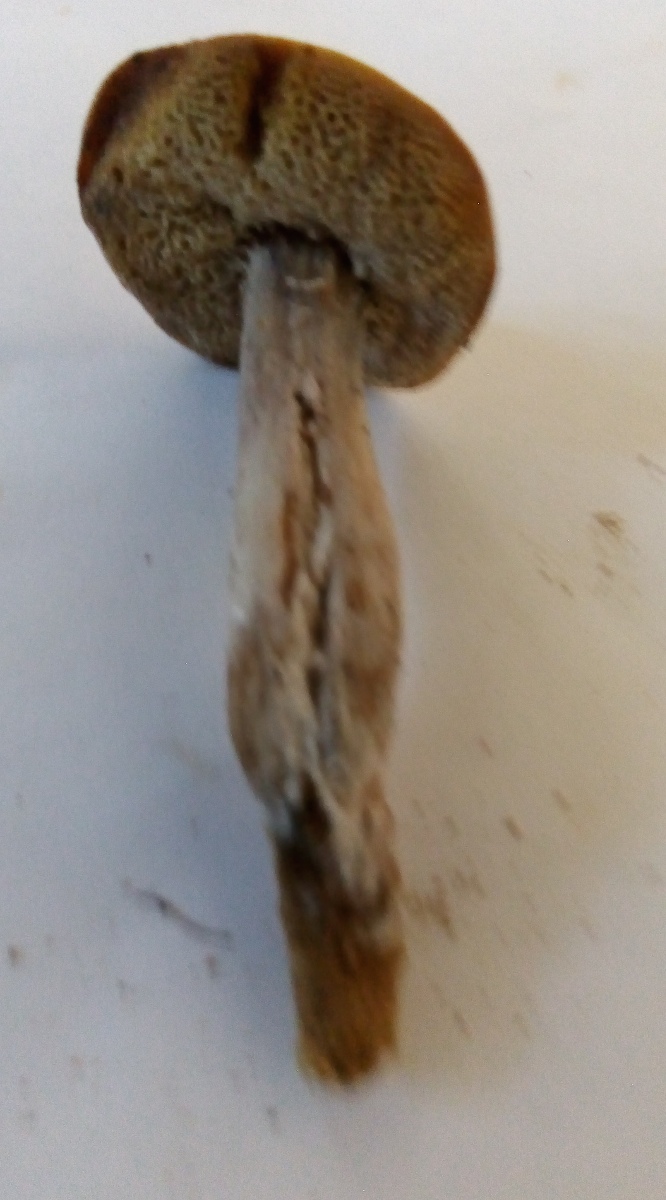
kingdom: Fungi
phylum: Basidiomycota
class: Agaricomycetes
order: Boletales
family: Boletaceae
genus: Xerocomus
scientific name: Xerocomus ferrugineus
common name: vaskeskinds-rørhat
